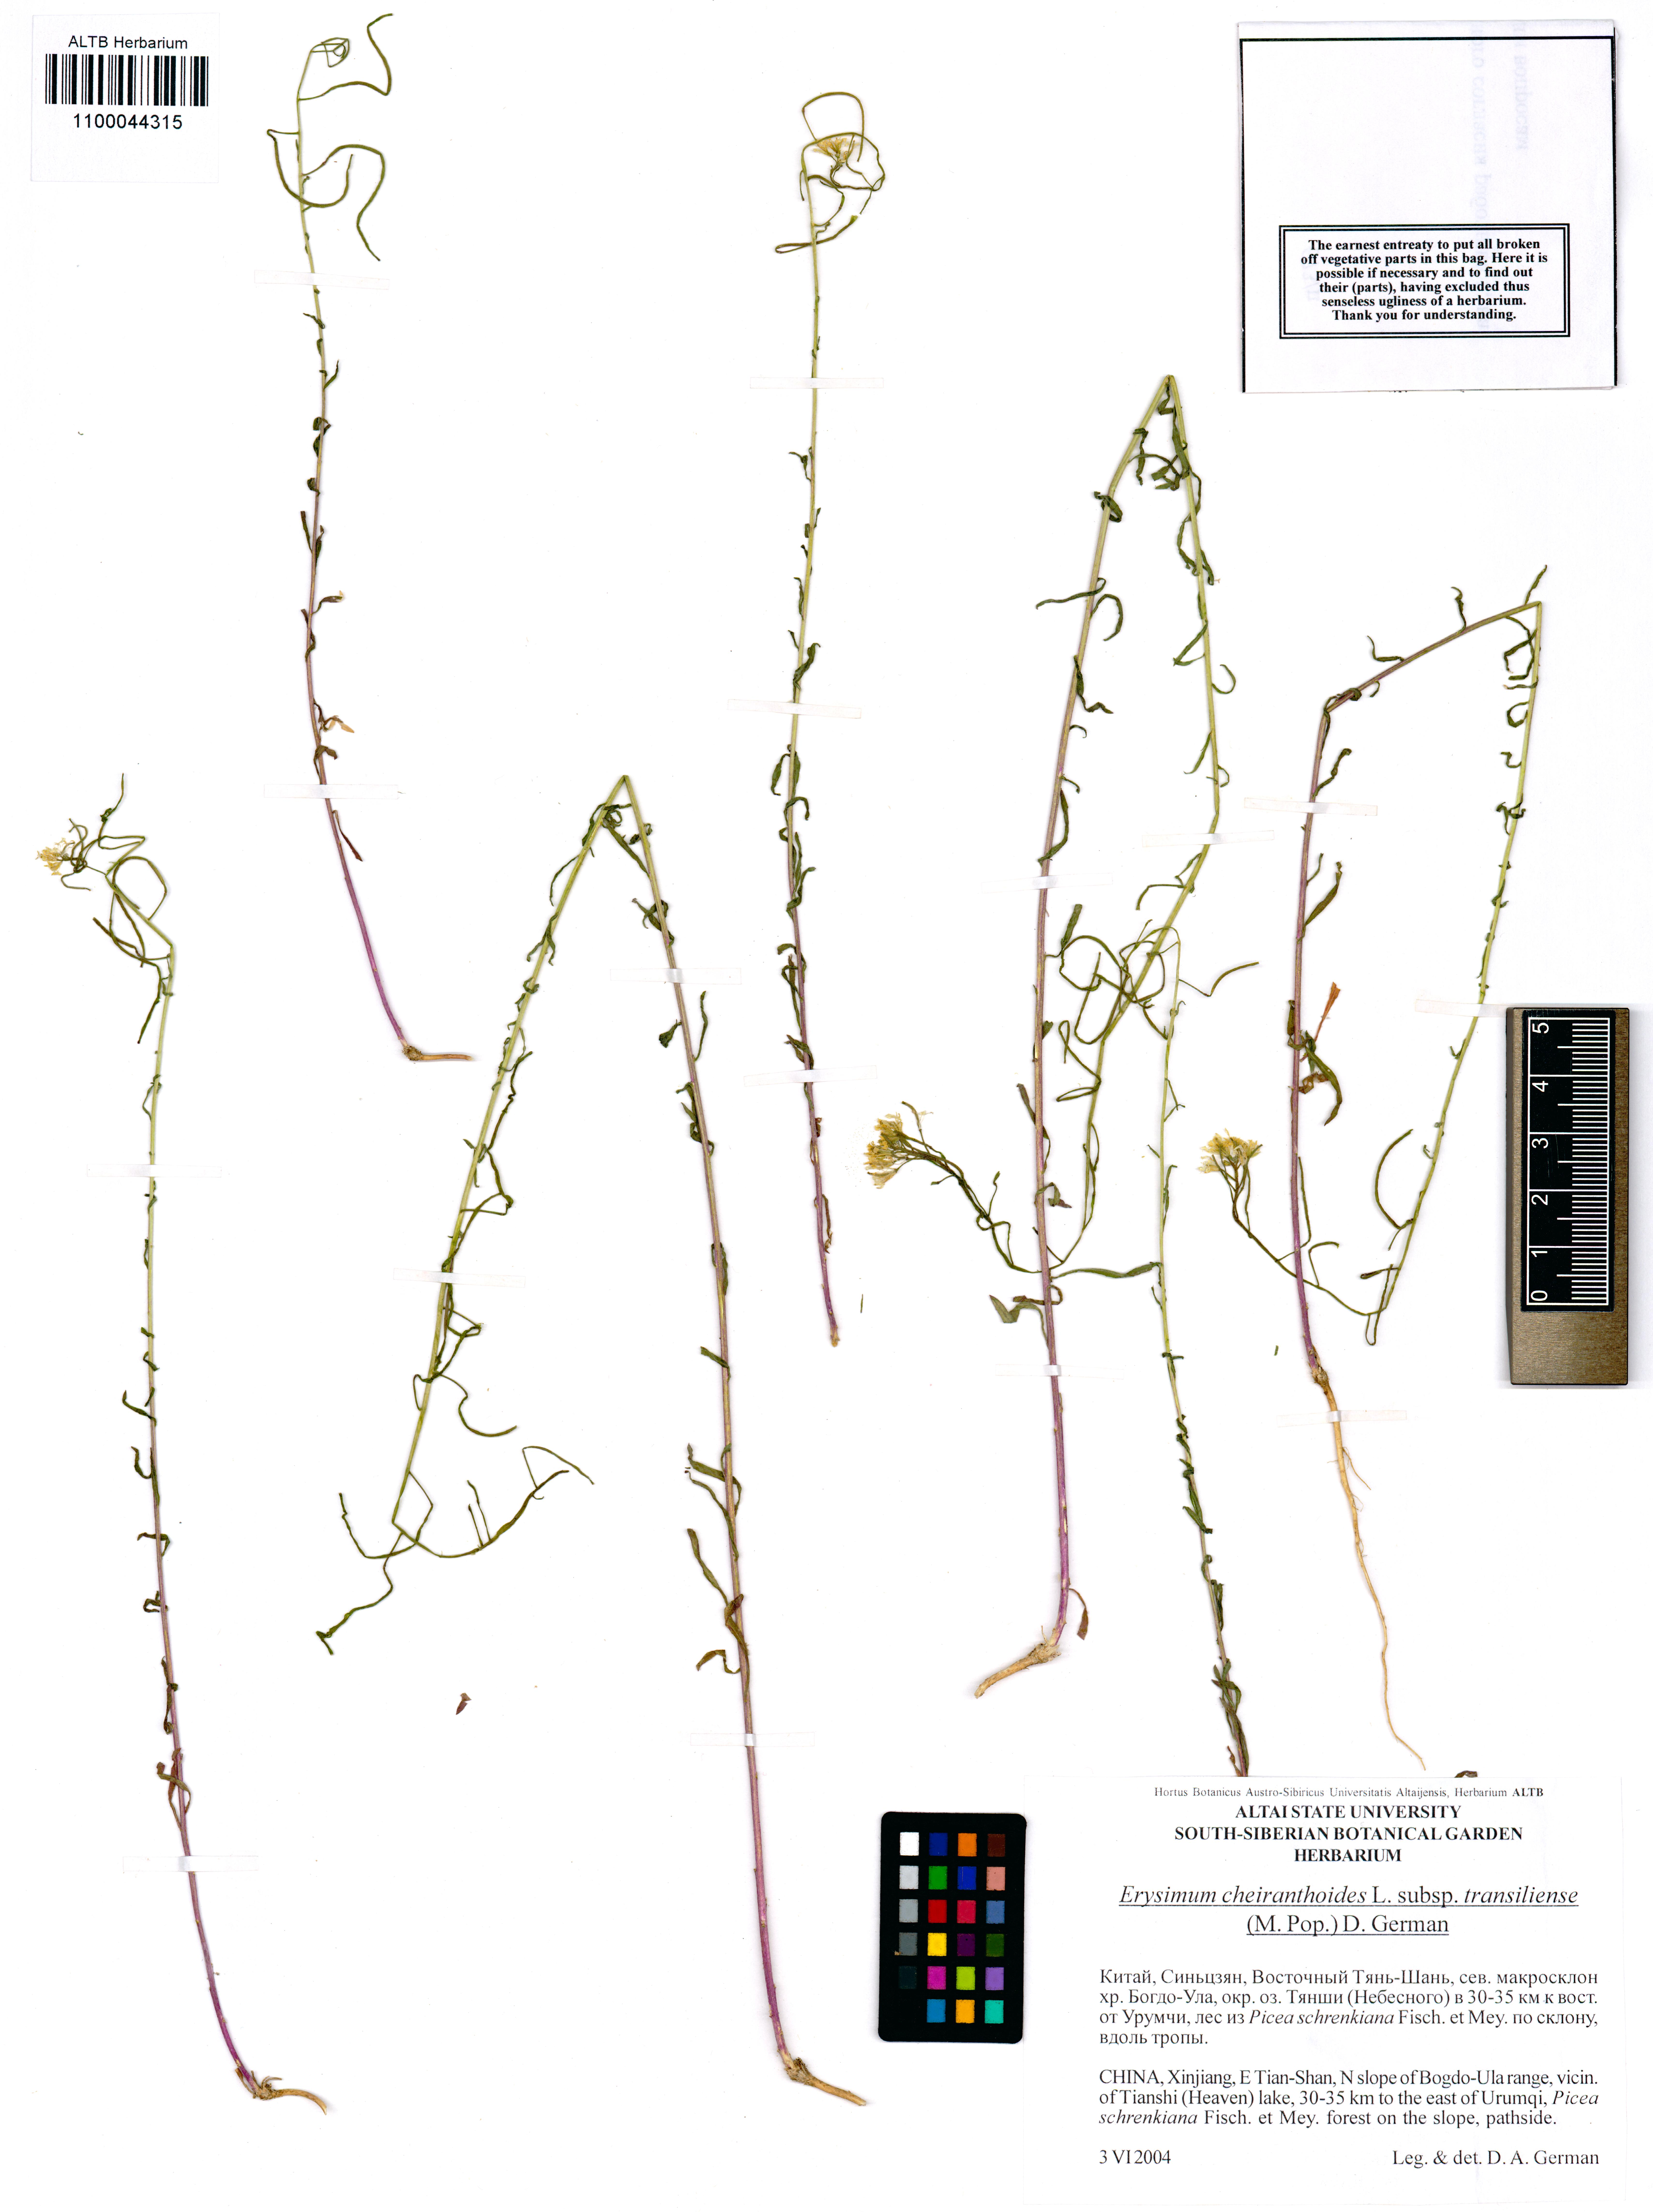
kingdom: Plantae
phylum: Tracheophyta
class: Magnoliopsida
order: Brassicales
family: Brassicaceae
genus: Erysimum
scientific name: Erysimum virgatum
